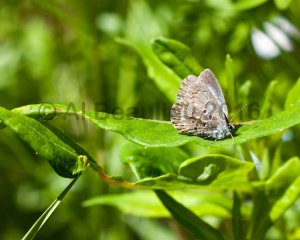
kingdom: Animalia
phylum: Arthropoda
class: Insecta
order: Lepidoptera
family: Lycaenidae
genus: Celastrina
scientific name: Celastrina lucia
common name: Northern Spring Azure
